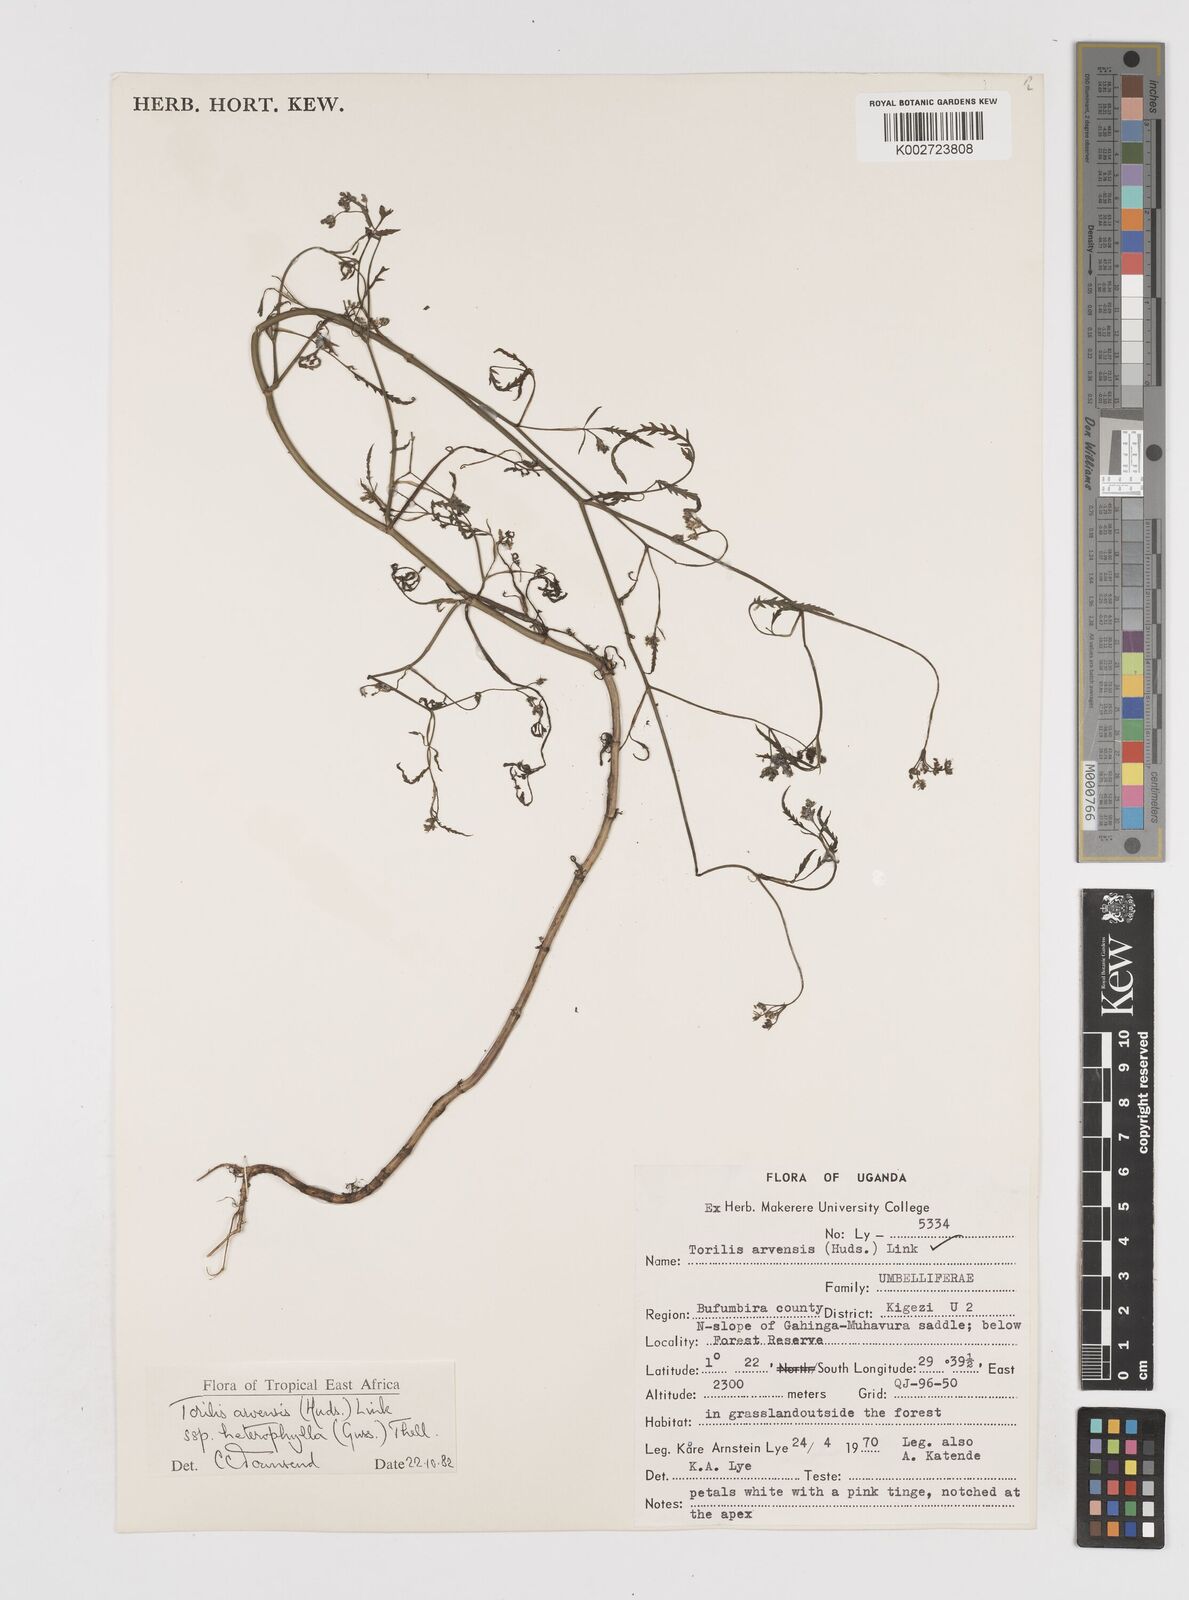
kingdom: Plantae
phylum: Tracheophyta
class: Magnoliopsida
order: Apiales
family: Apiaceae
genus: Torilis
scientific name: Torilis arvensis
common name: Spreading hedge-parsley
